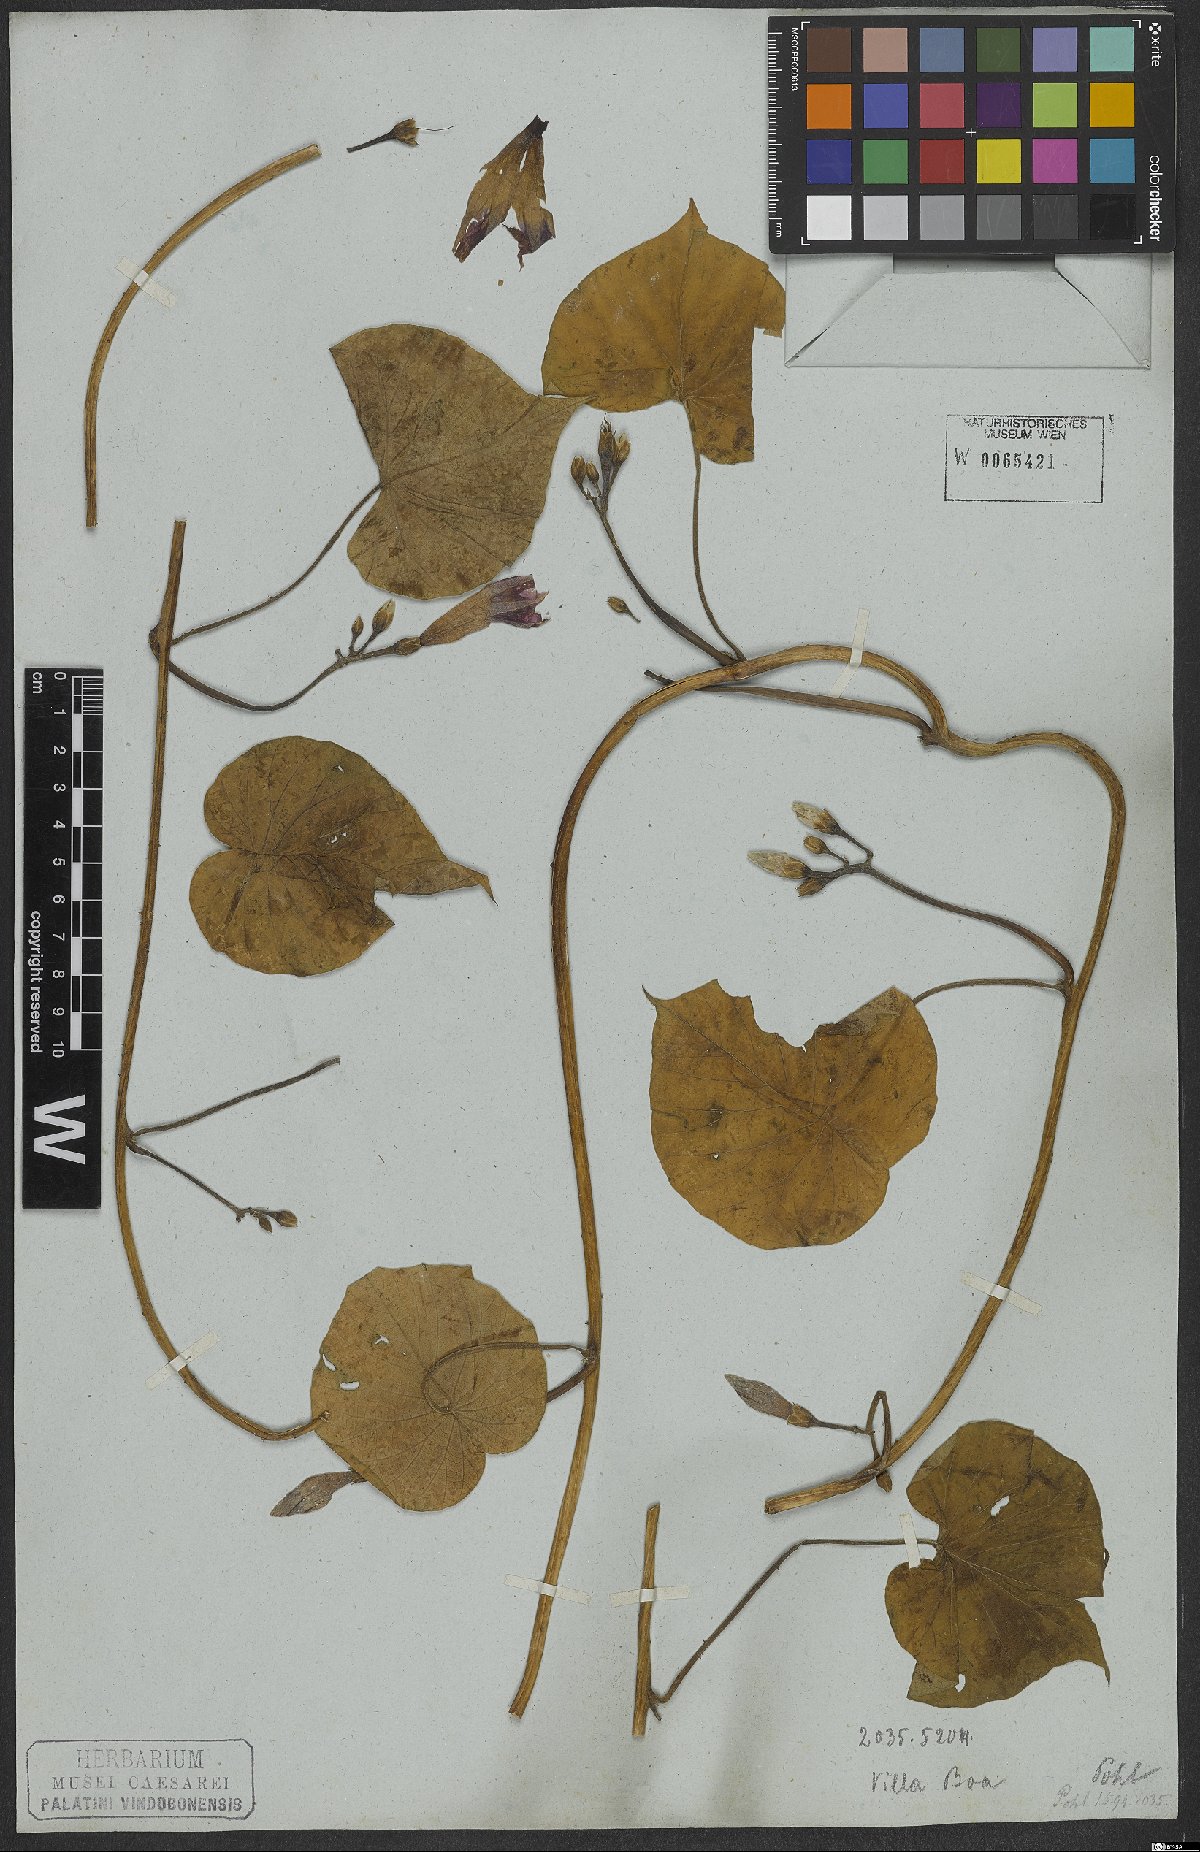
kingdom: Plantae
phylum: Tracheophyta
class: Magnoliopsida
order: Solanales
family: Convolvulaceae
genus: Ipomoea
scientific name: Ipomoea nyctaginea
